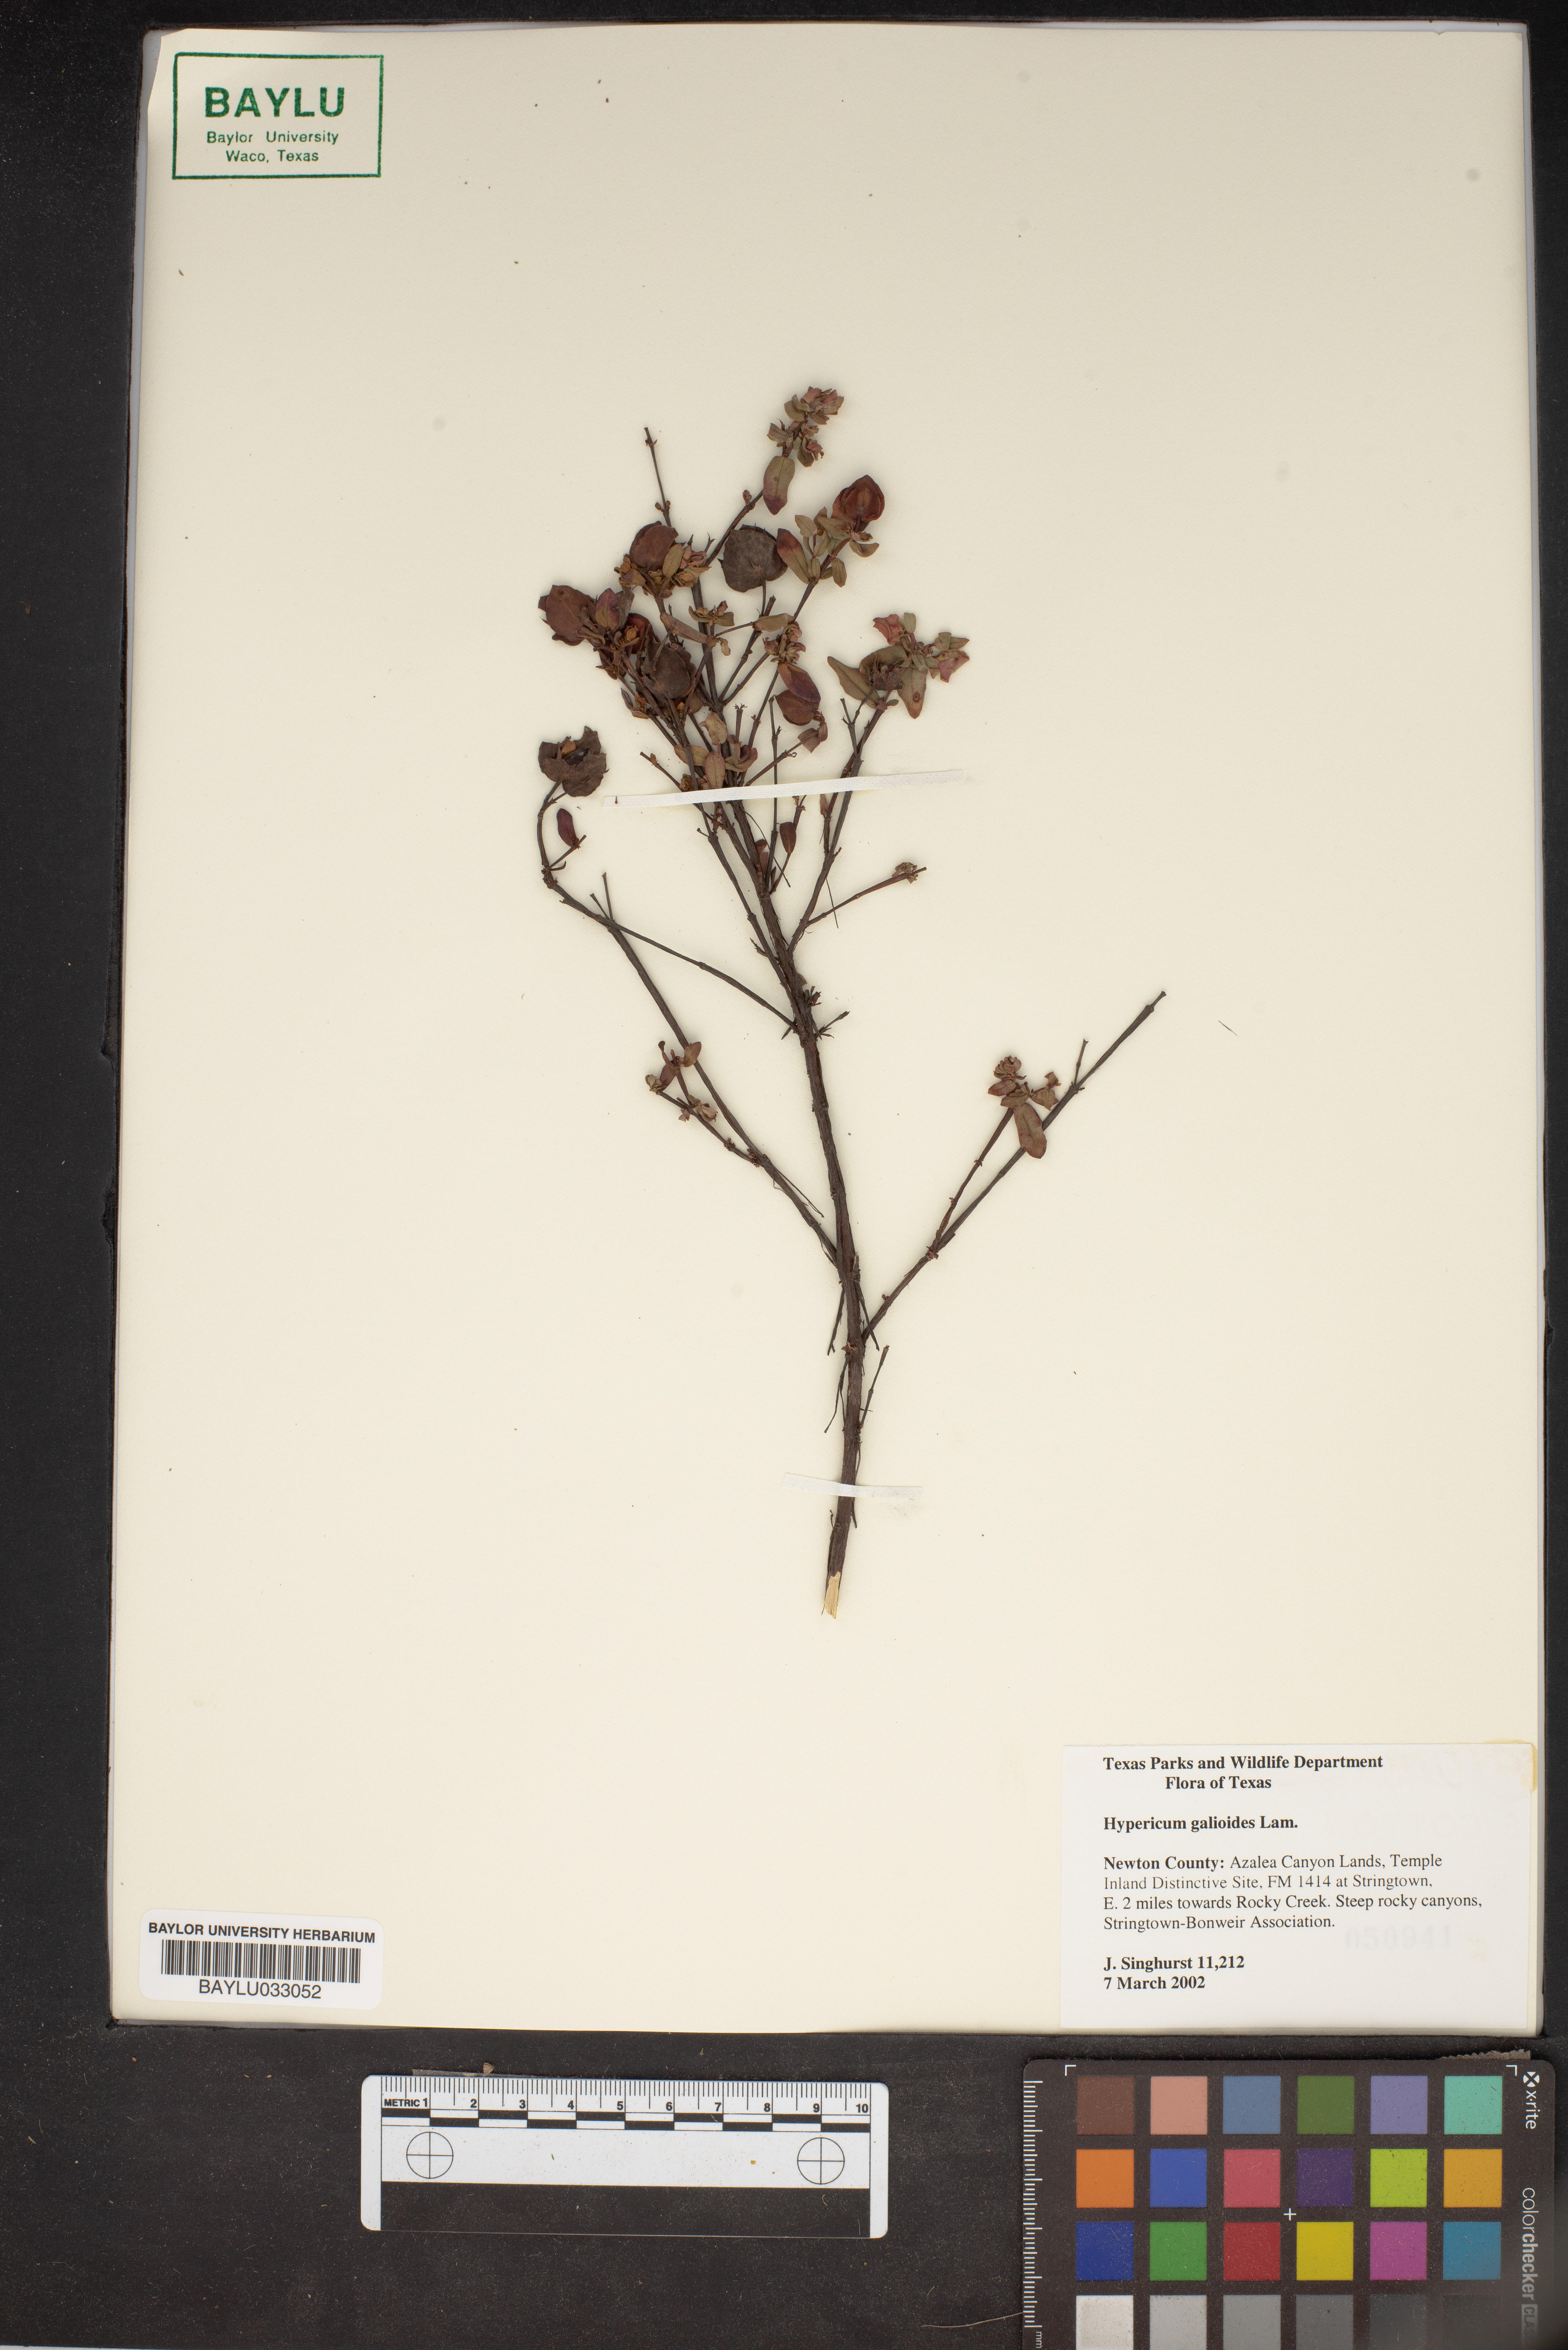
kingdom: Plantae
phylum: Tracheophyta
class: Magnoliopsida
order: Malpighiales
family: Hypericaceae
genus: Hypericum
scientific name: Hypericum galioides
